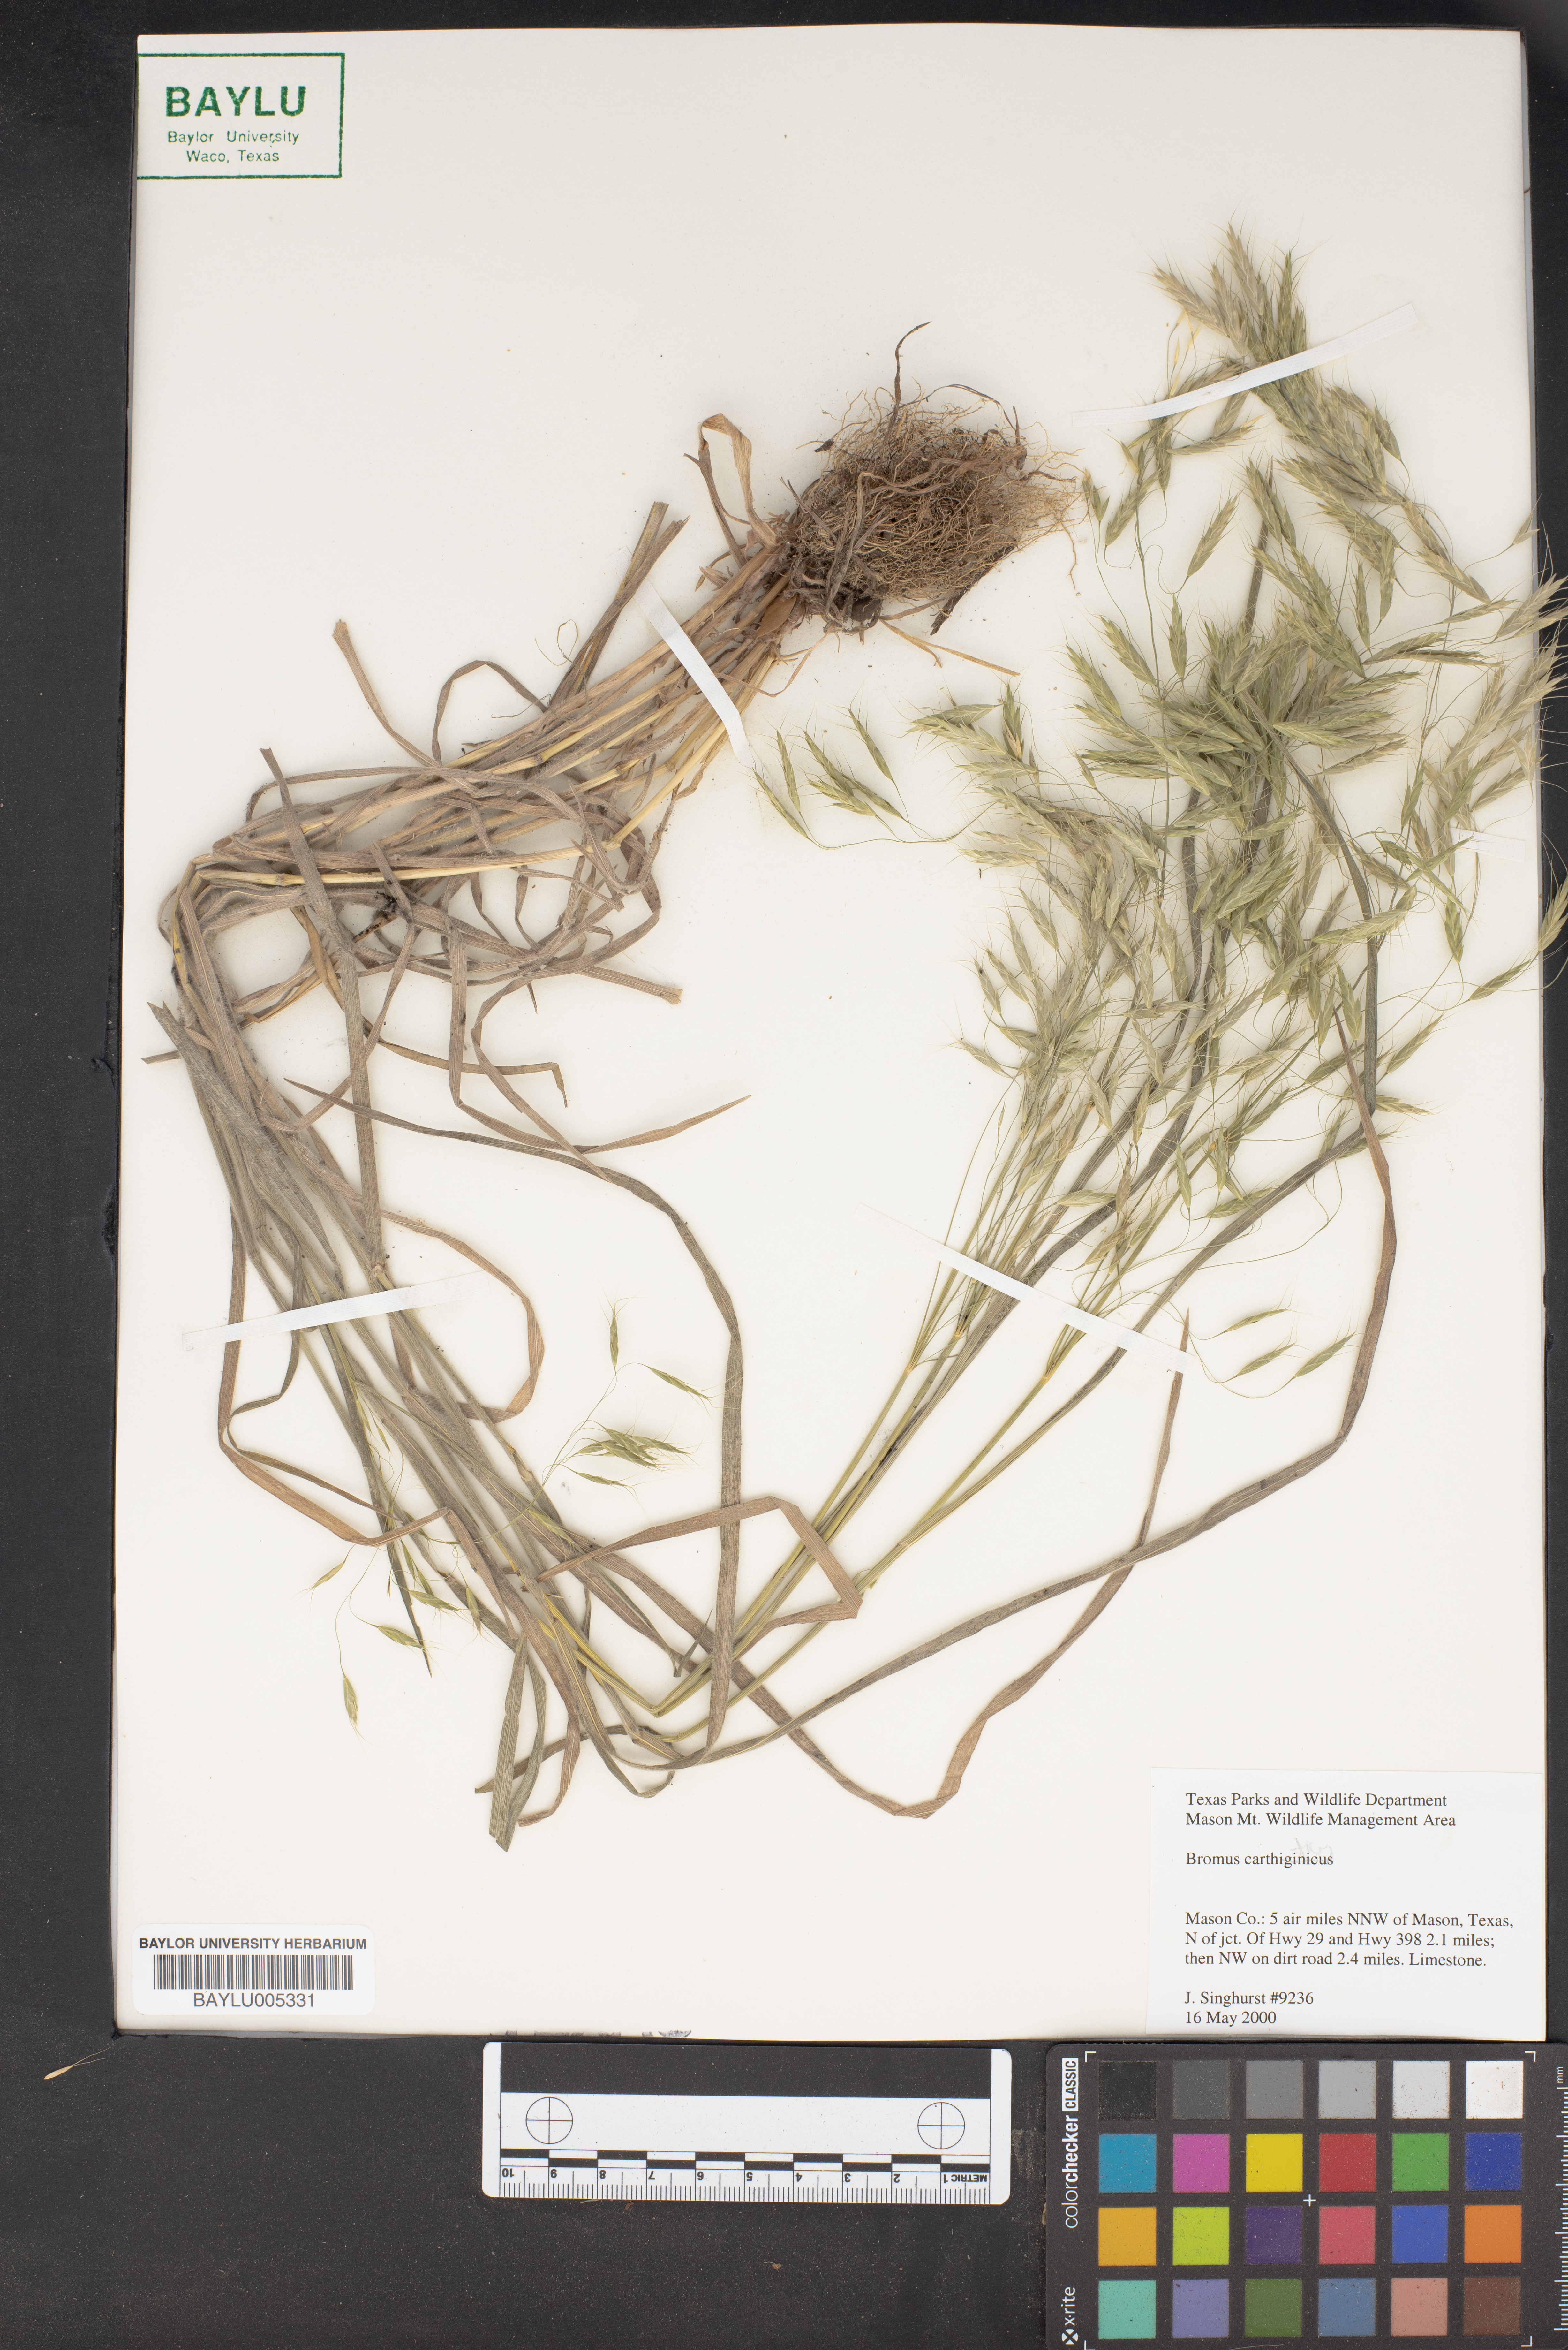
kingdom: Plantae
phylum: Tracheophyta
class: Liliopsida
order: Poales
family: Poaceae
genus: Bromus
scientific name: Bromus
